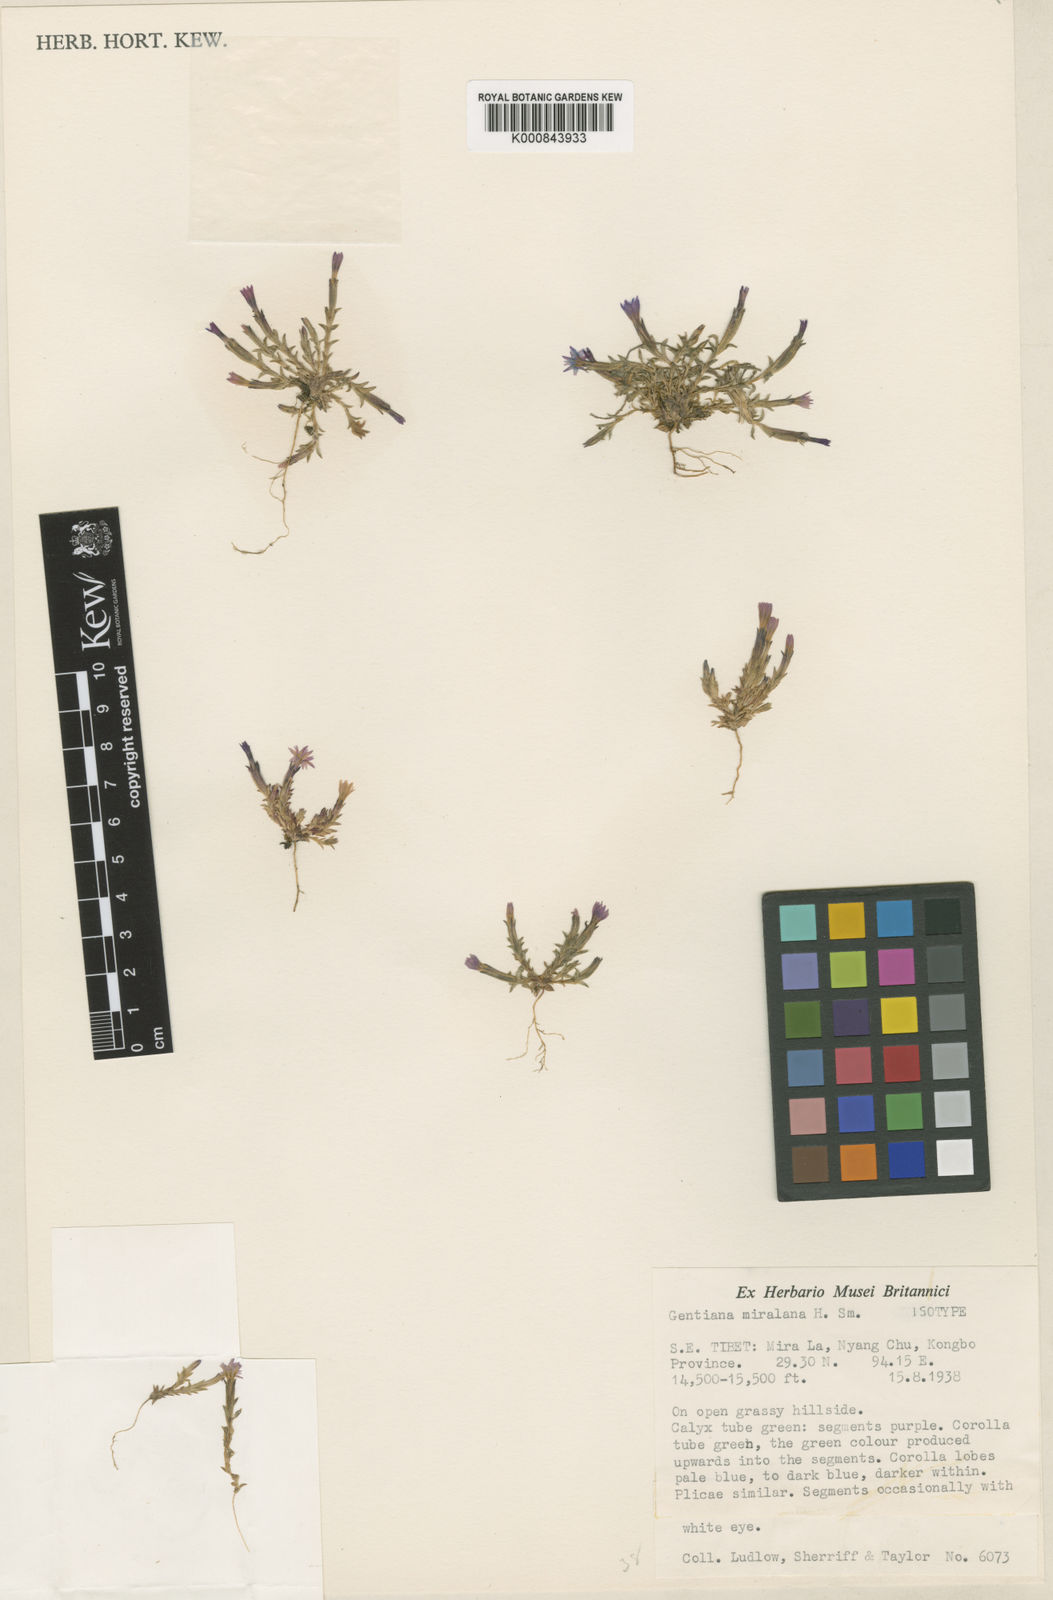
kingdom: Plantae
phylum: Tracheophyta
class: Magnoliopsida
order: Gentianales
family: Gentianaceae
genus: Gentiana
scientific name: Gentiana
